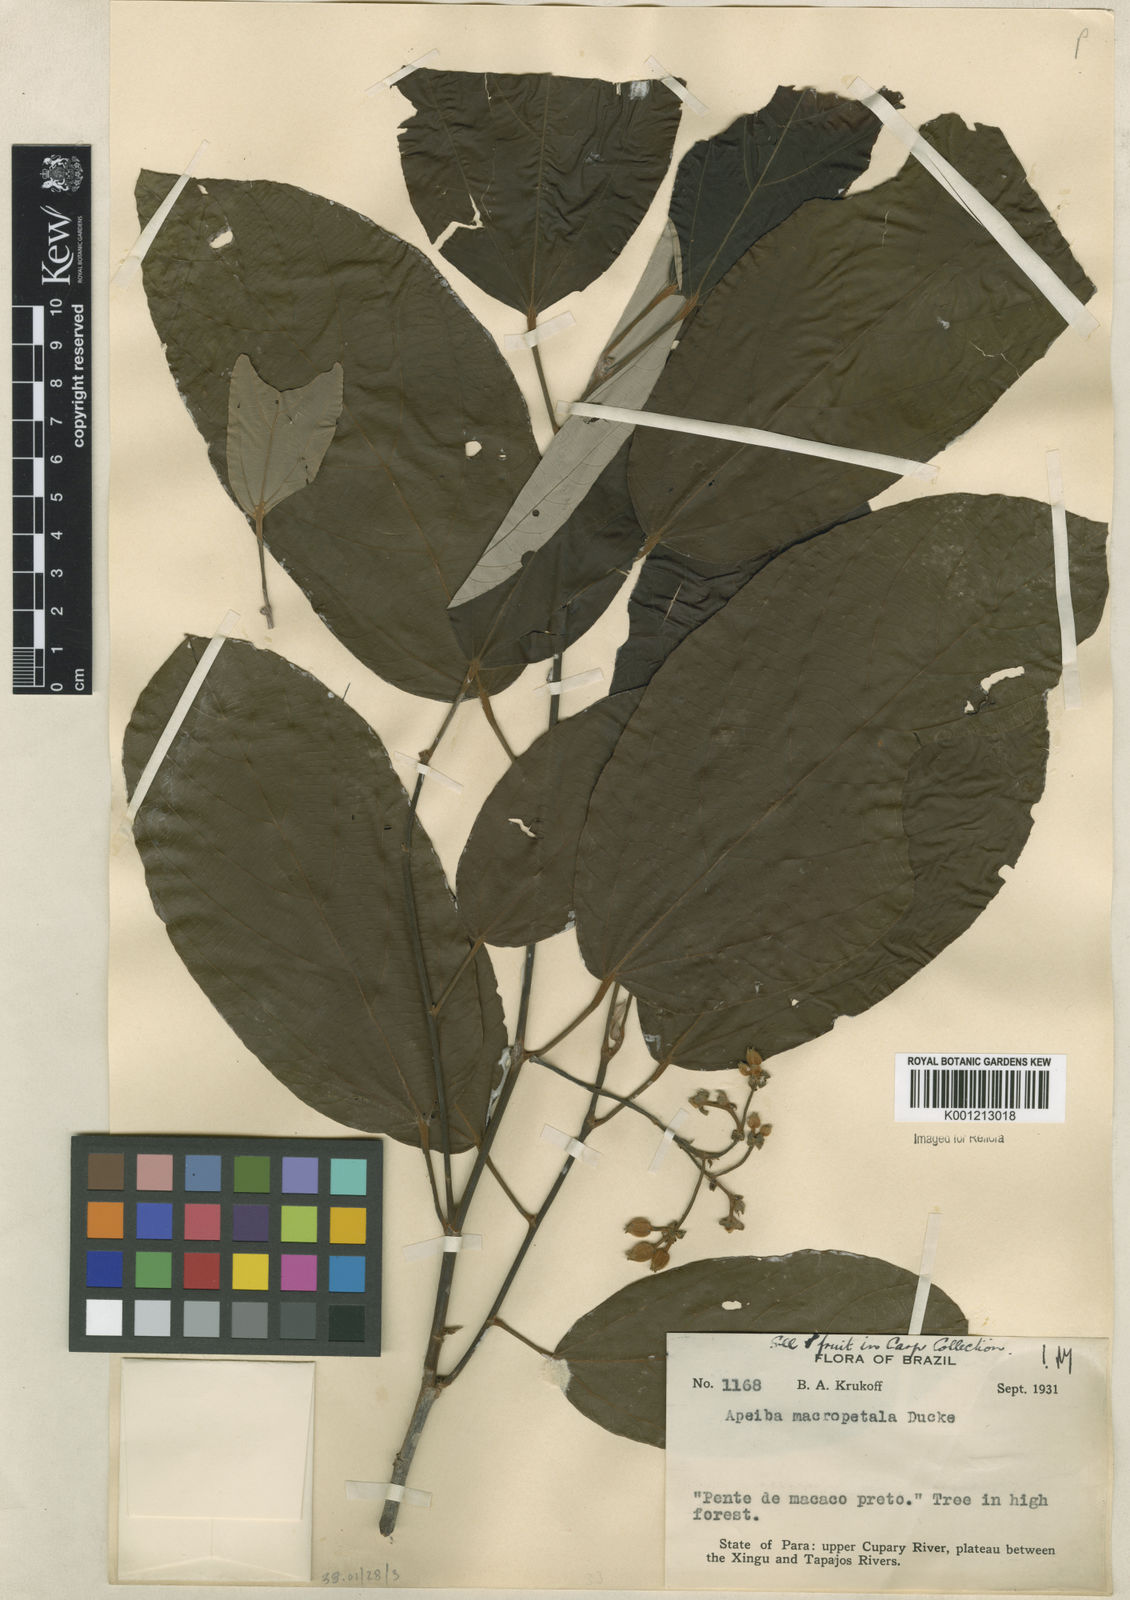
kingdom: Plantae
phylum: Tracheophyta
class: Magnoliopsida
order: Malvales
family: Malvaceae
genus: Apeiba
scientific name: Apeiba
